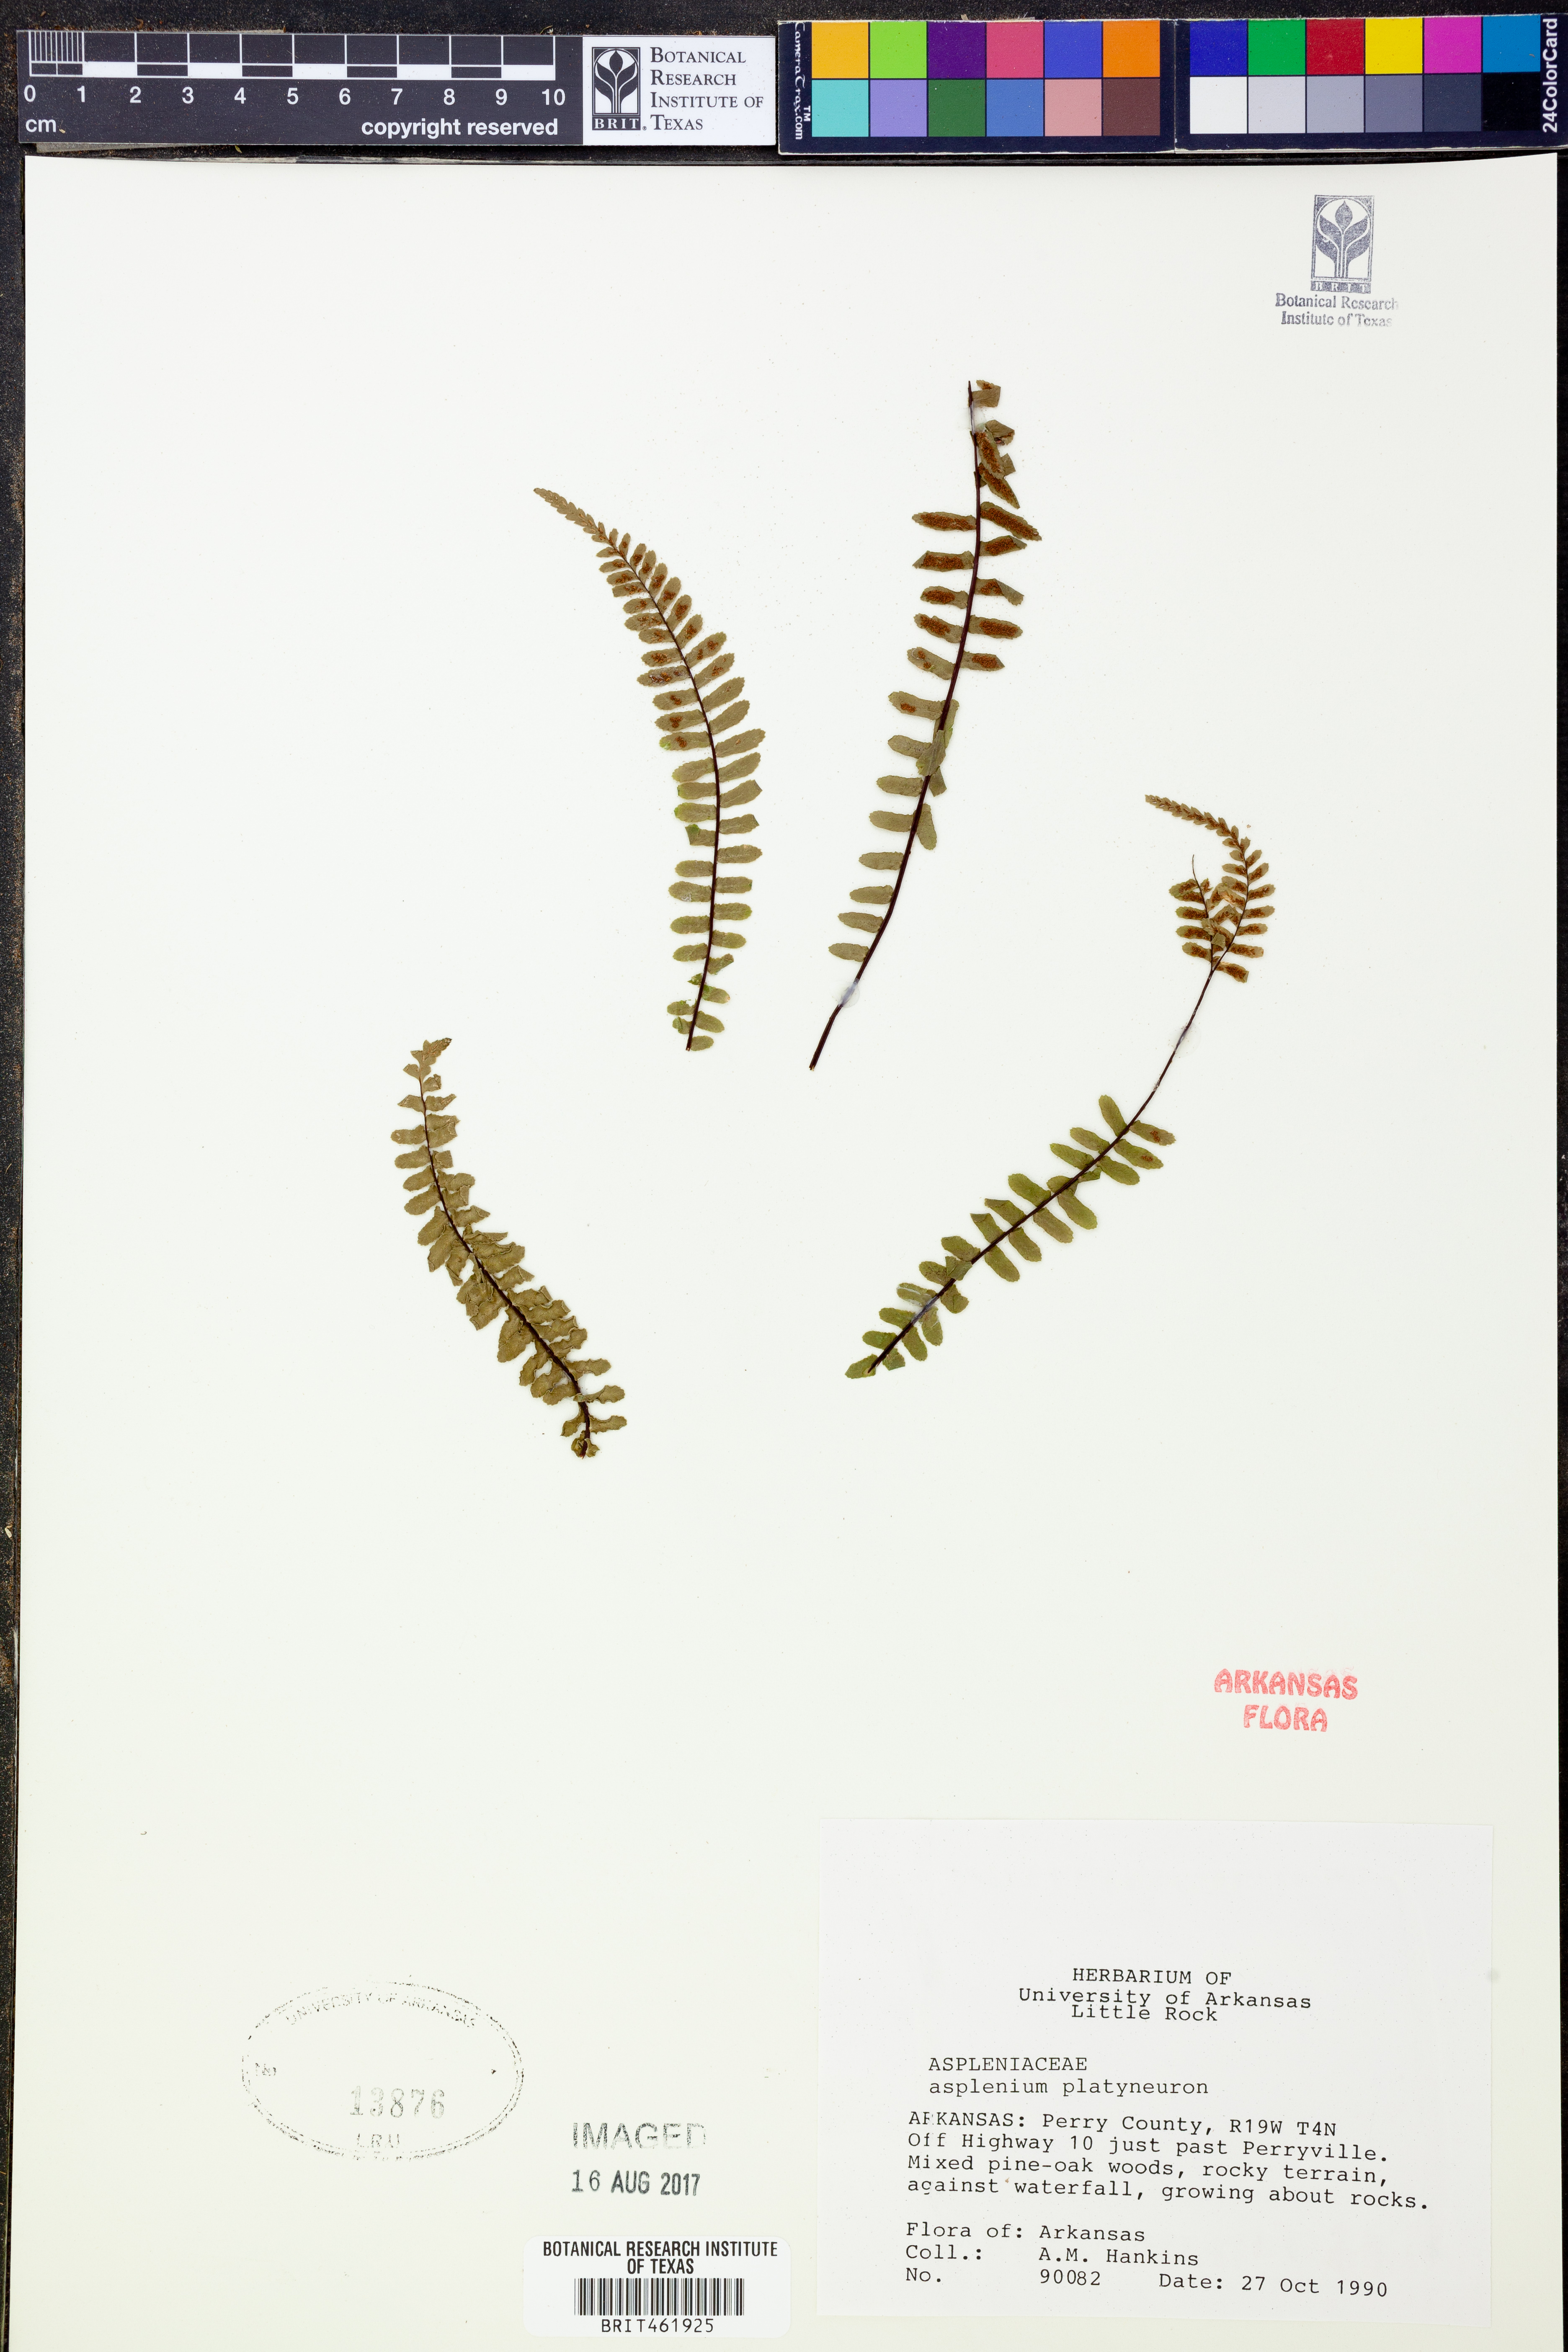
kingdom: Plantae
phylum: Tracheophyta
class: Polypodiopsida
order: Polypodiales
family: Aspleniaceae
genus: Asplenium
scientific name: Asplenium platyneuron
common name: Ebony spleenwort
